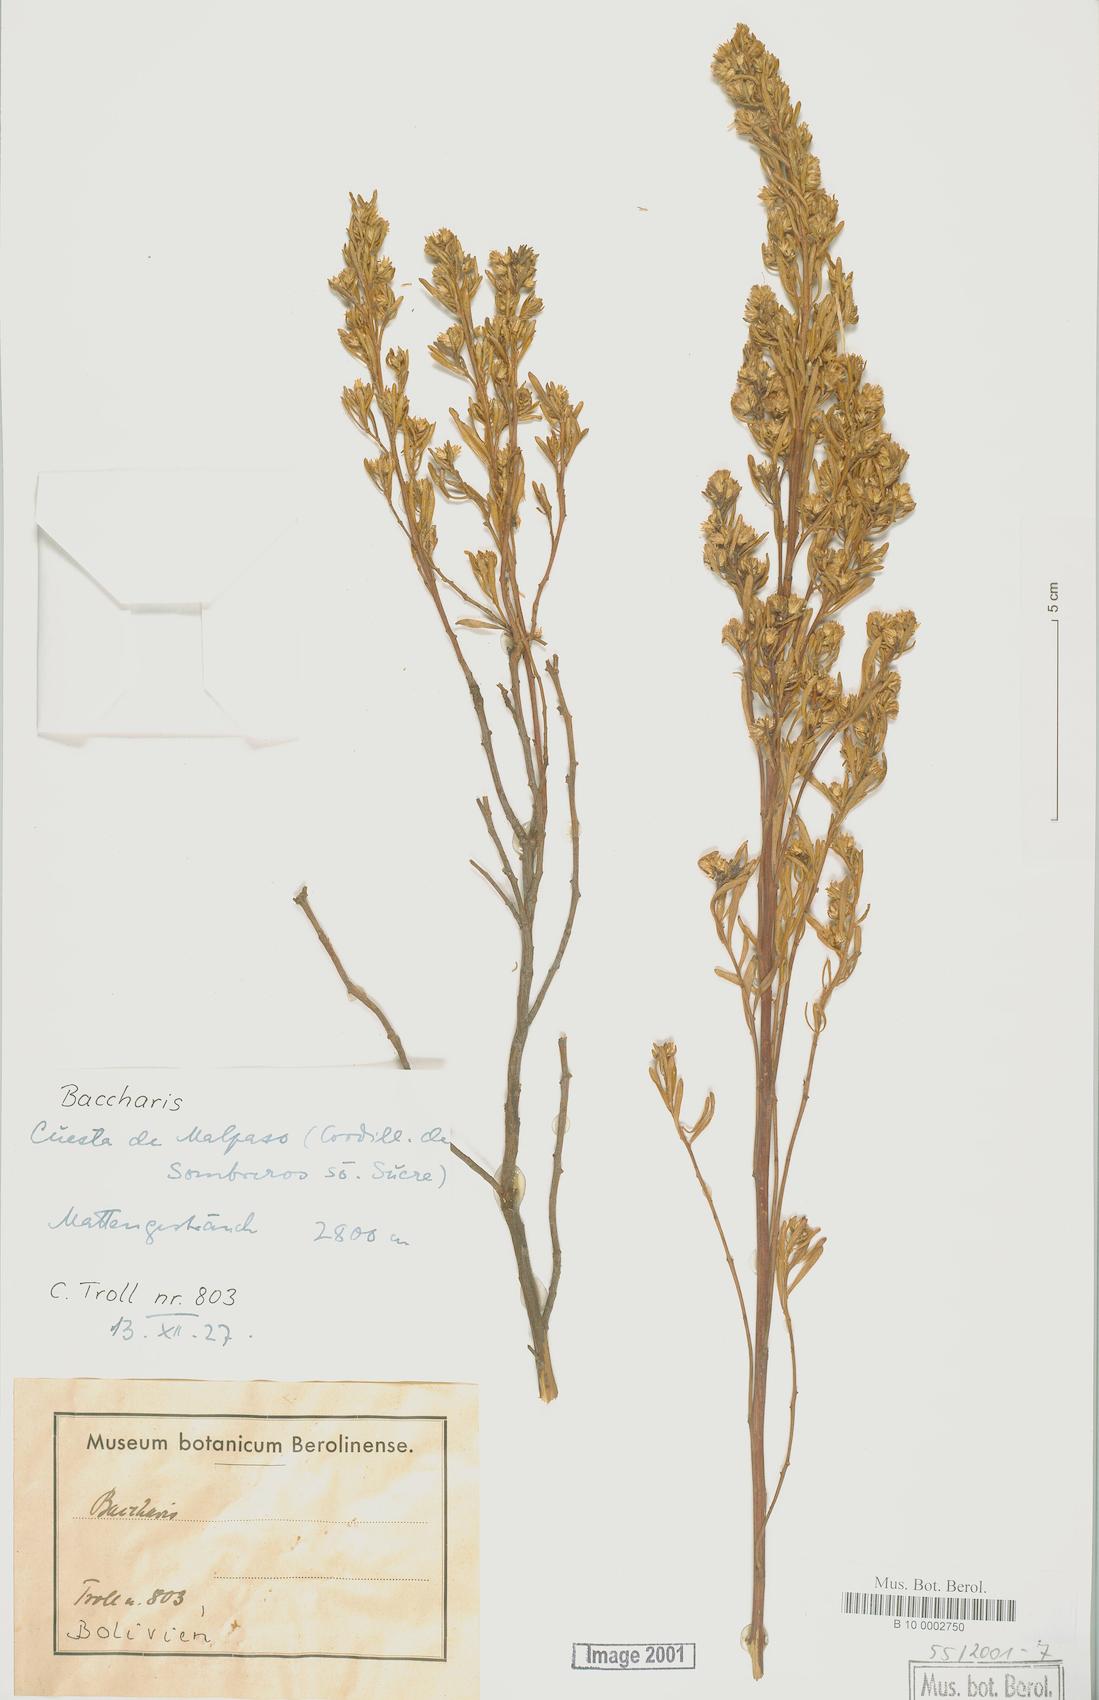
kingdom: Plantae
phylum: Tracheophyta
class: Magnoliopsida
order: Asterales
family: Asteraceae
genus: Baccharis
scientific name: Baccharis
